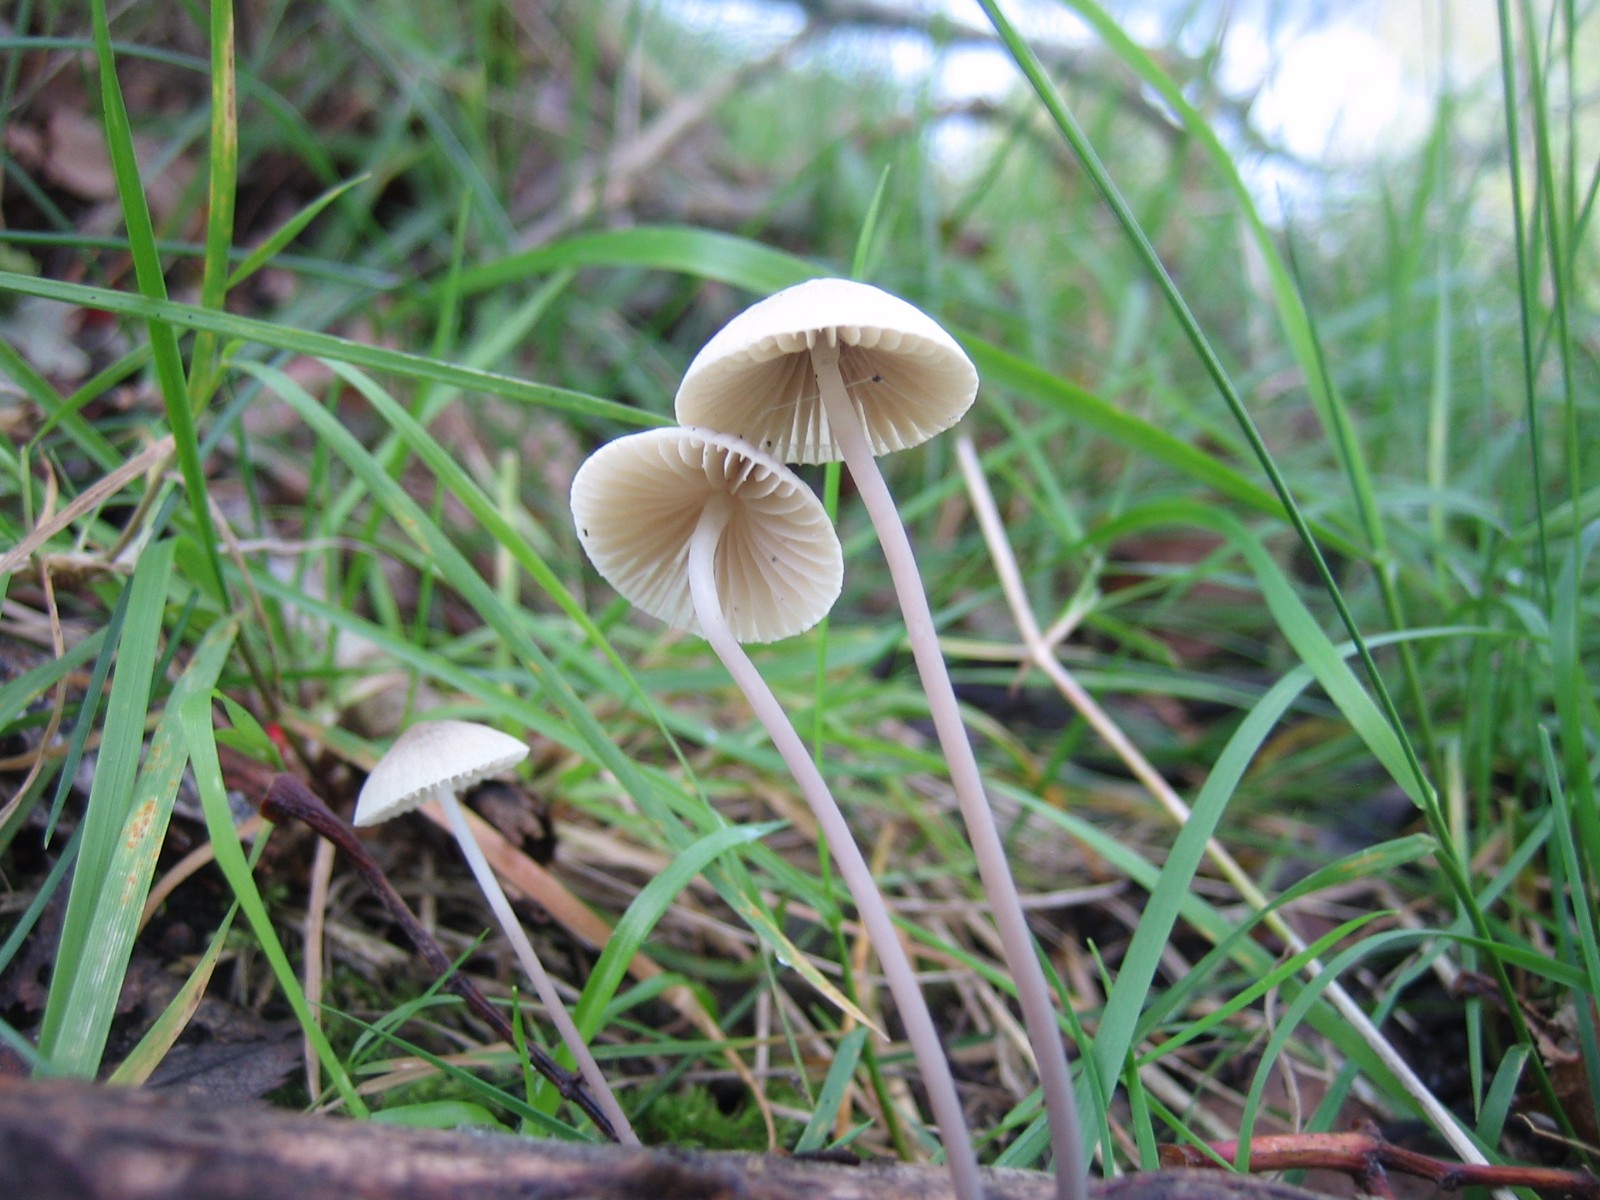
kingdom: Fungi
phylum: Basidiomycota
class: Agaricomycetes
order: Agaricales
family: Mycenaceae
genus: Mycena
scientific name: Mycena arcangeliana
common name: oliven-huesvamp
